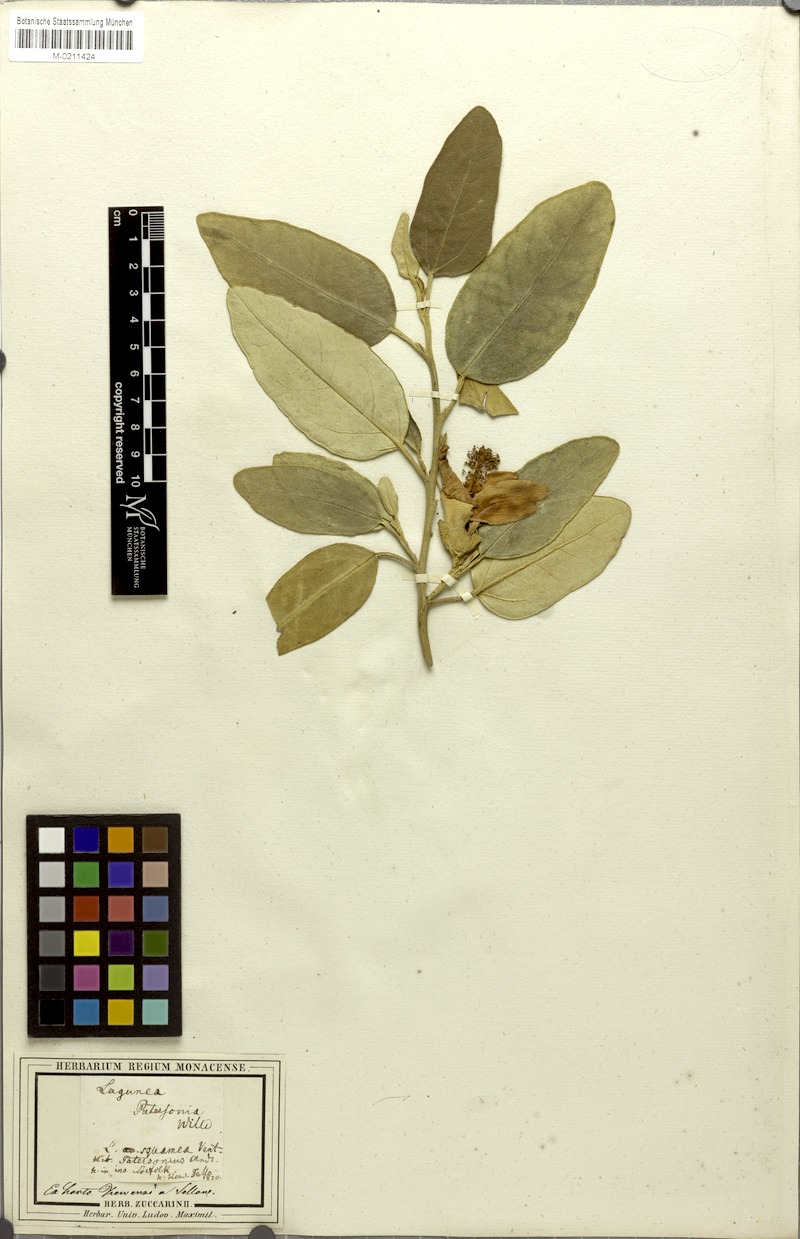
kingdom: Plantae
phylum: Tracheophyta
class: Magnoliopsida
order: Malvales
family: Malvaceae
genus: Lagunaria
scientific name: Lagunaria patersonia
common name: Cow itch tree
